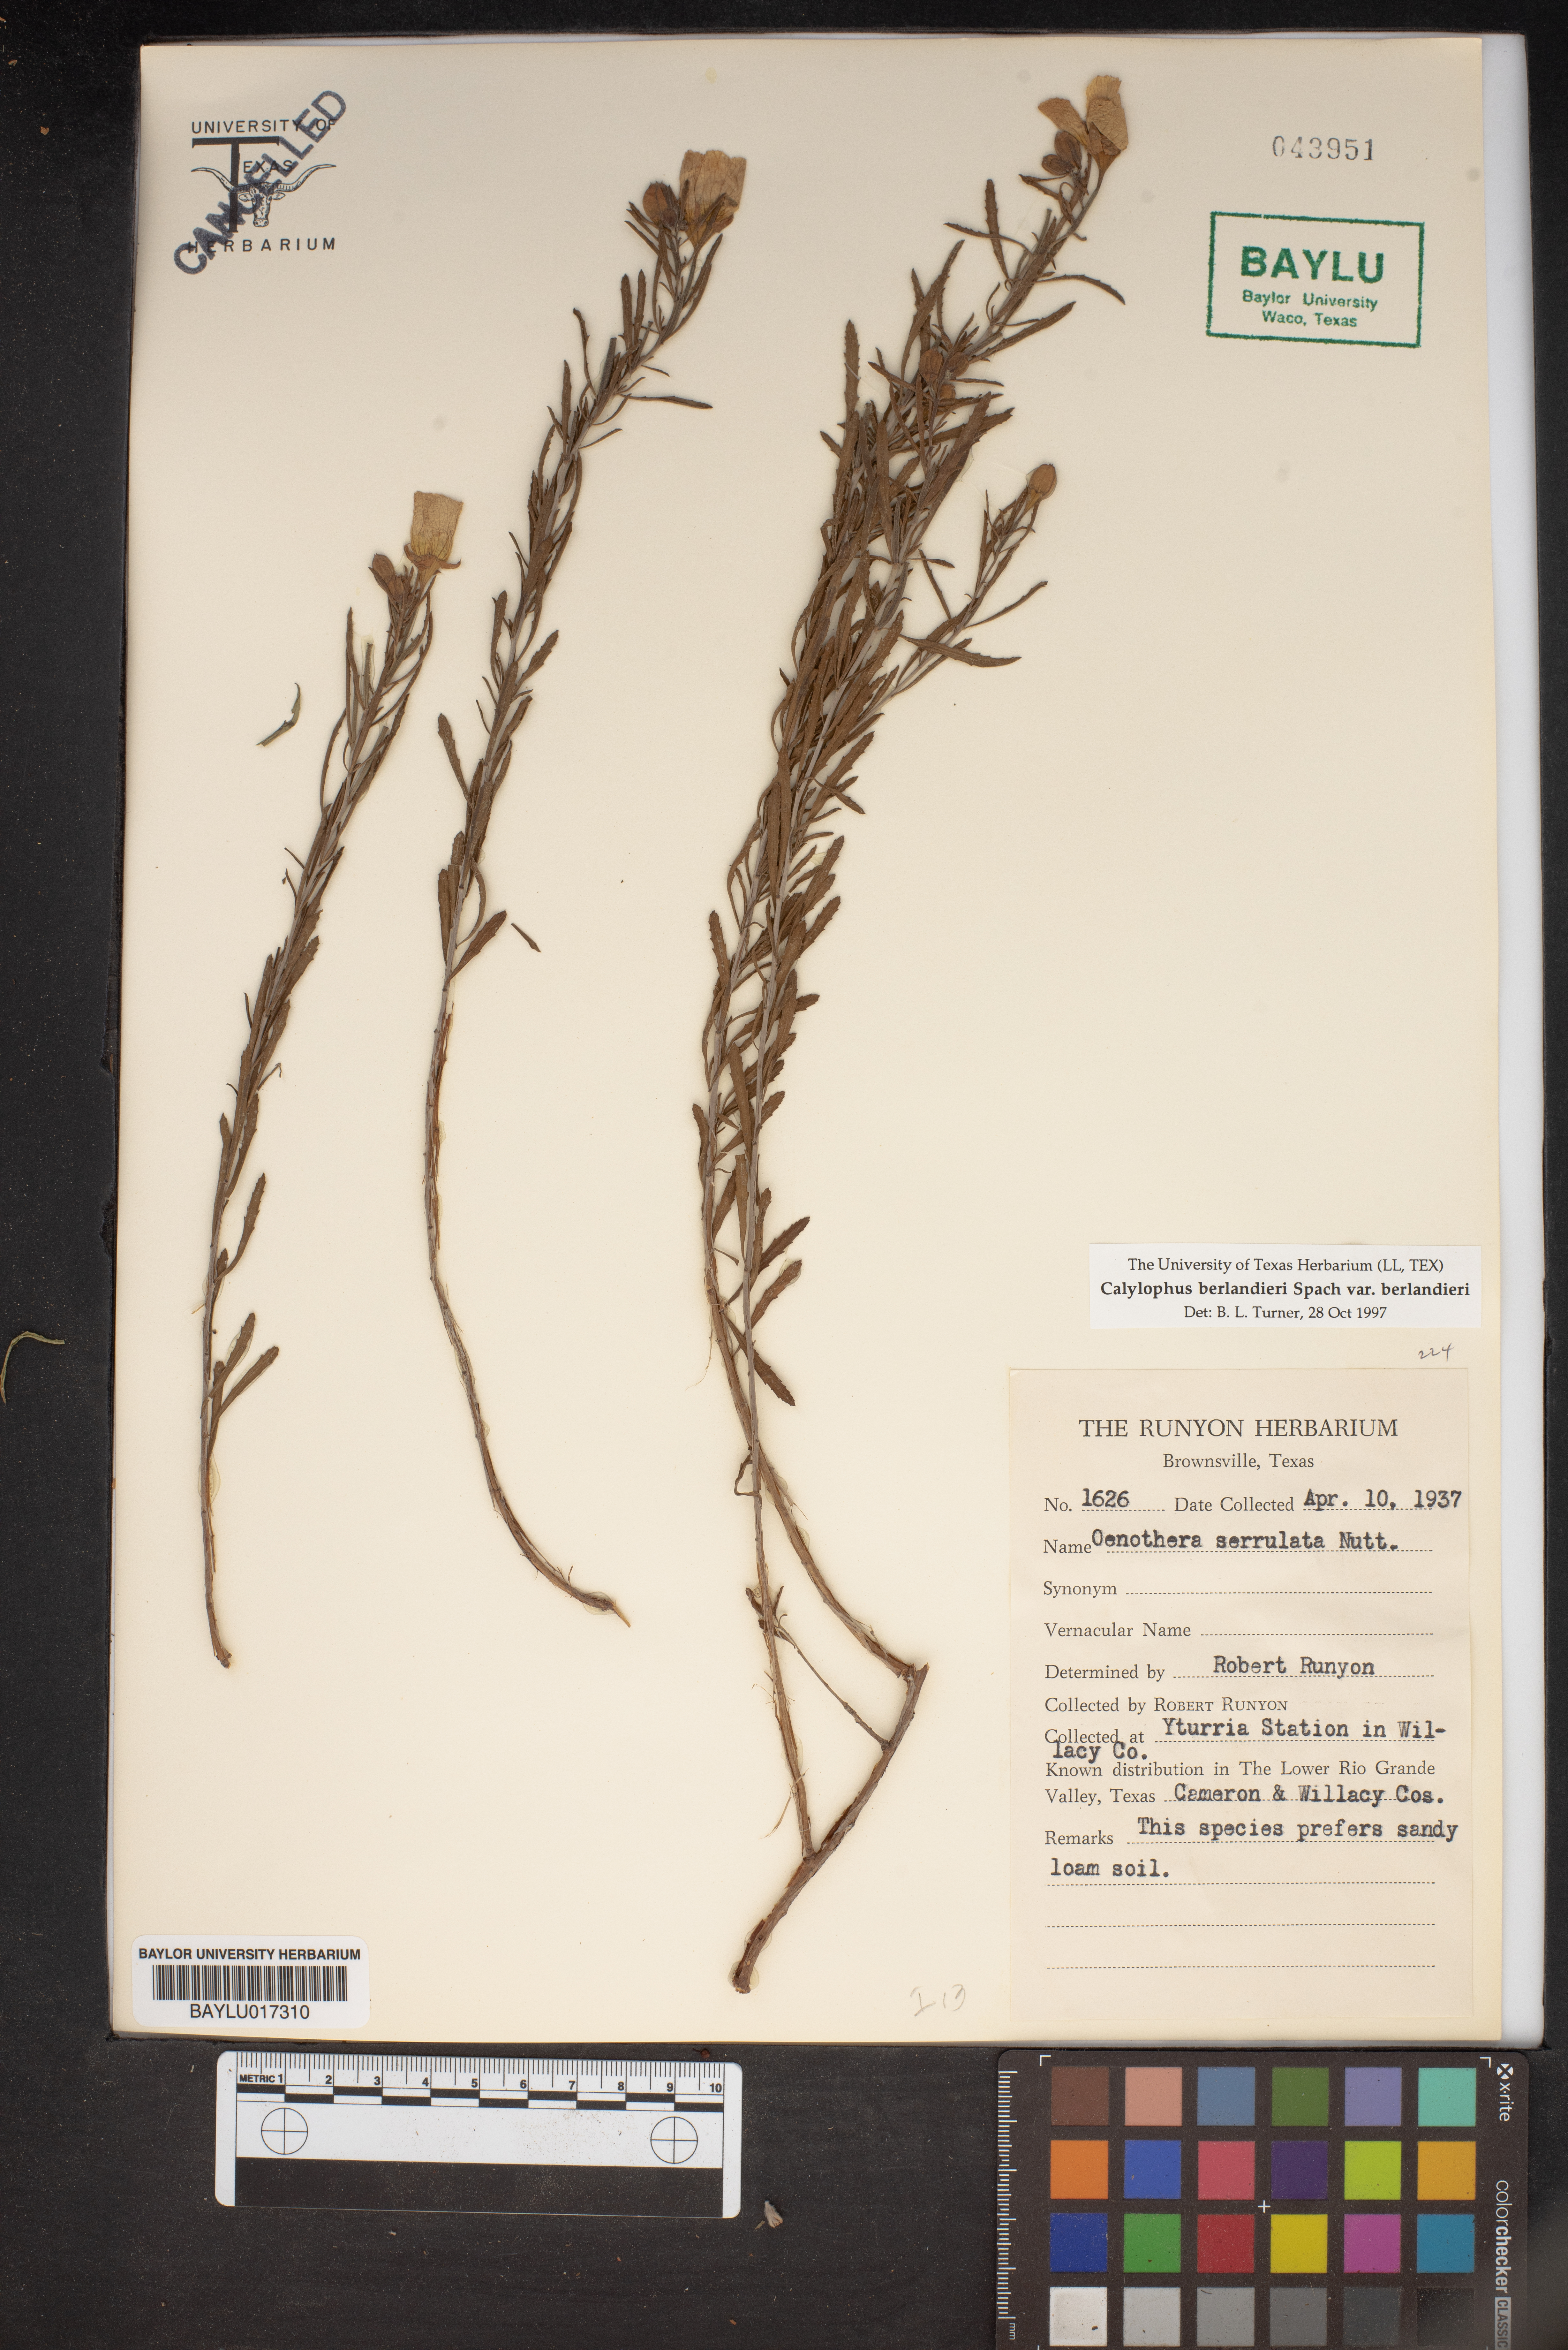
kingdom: Plantae
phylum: Tracheophyta
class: Magnoliopsida
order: Myrtales
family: Onagraceae
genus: Oenothera
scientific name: Oenothera serrulata
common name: Half-shrub calylophus
